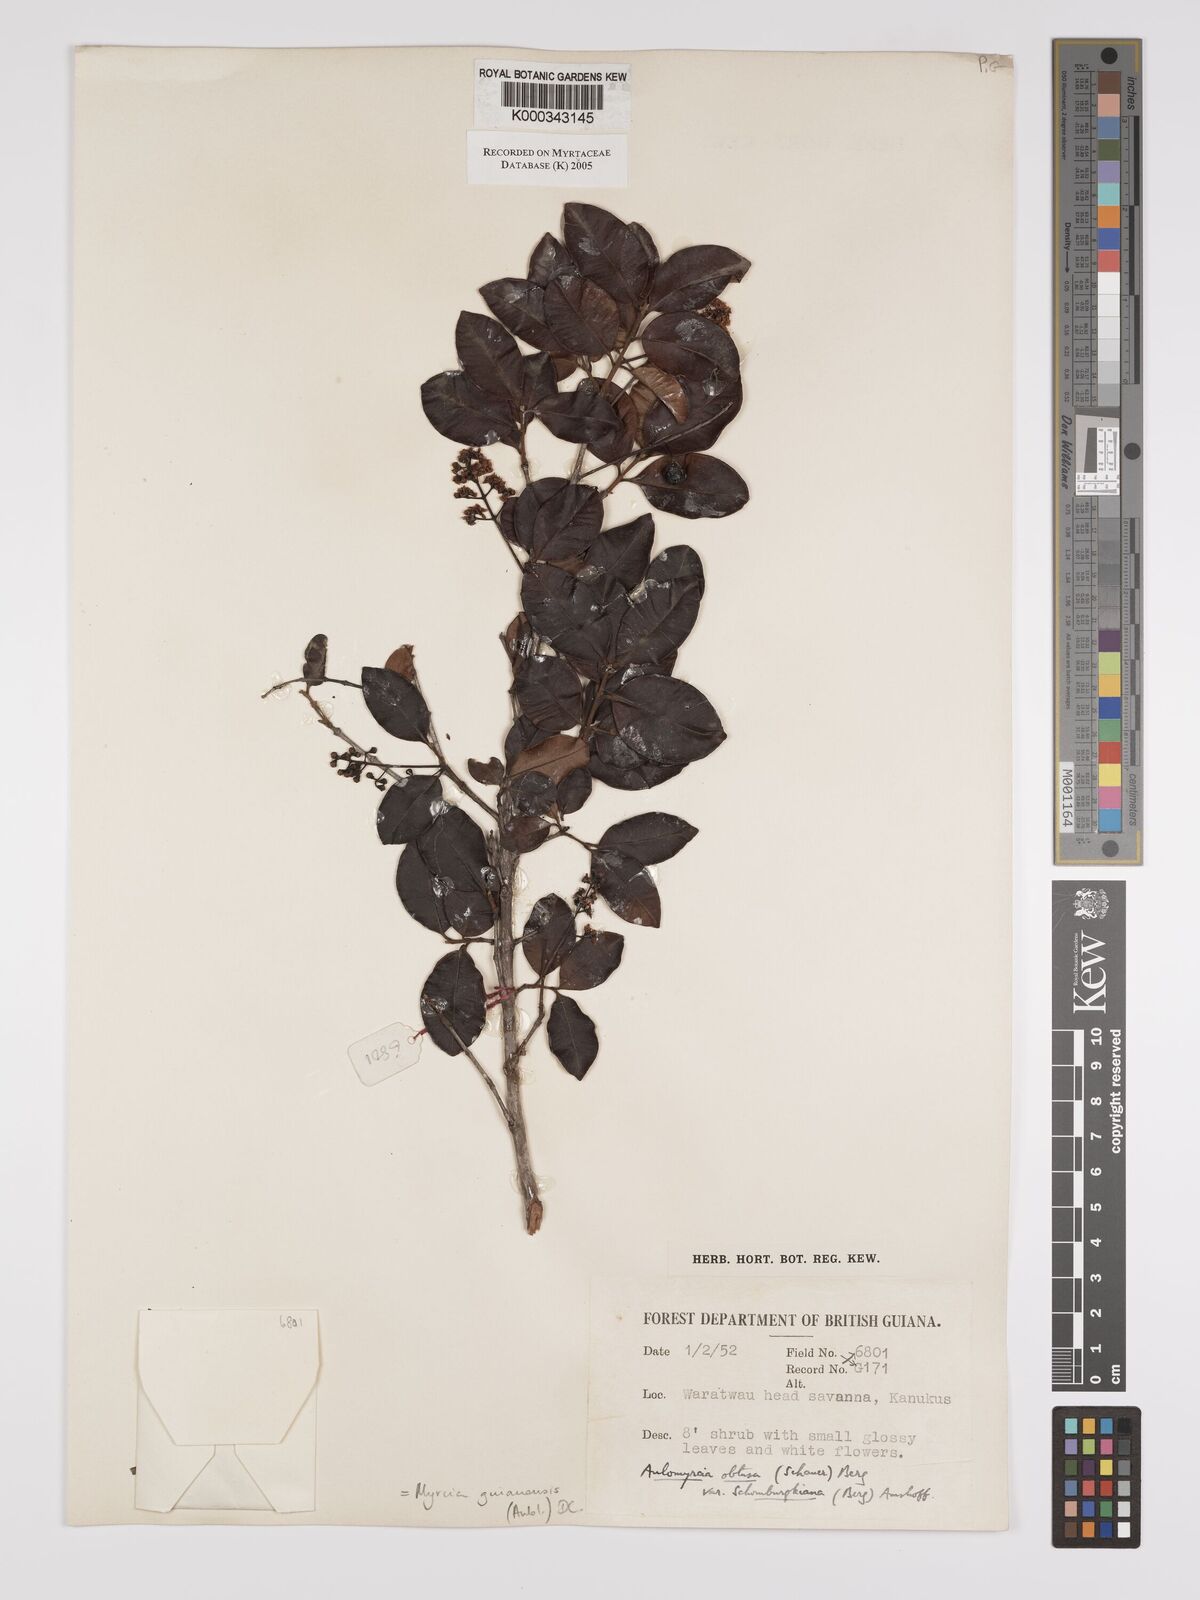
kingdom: Plantae
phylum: Tracheophyta
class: Magnoliopsida
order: Myrtales
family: Myrtaceae
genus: Myrcia
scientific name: Myrcia guianensis
